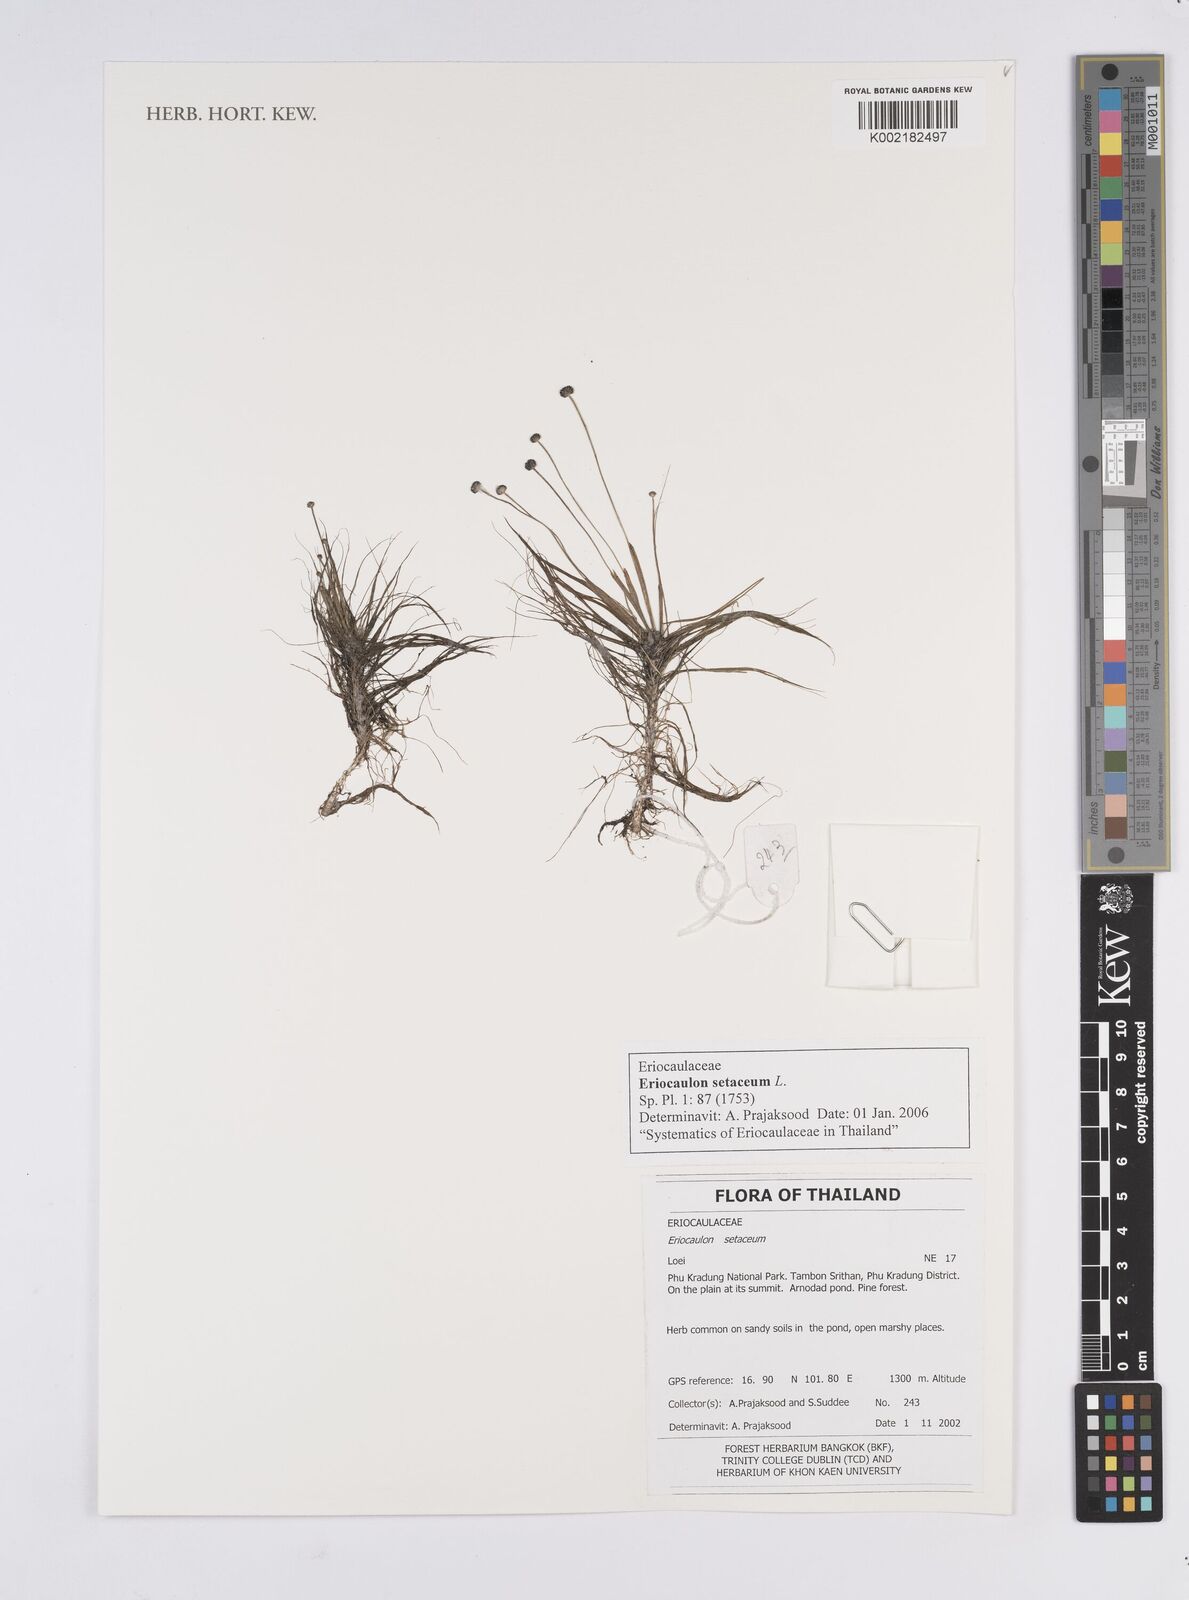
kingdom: Plantae
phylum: Tracheophyta
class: Liliopsida
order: Poales
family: Eriocaulaceae
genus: Eriocaulon
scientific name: Eriocaulon setaceum
